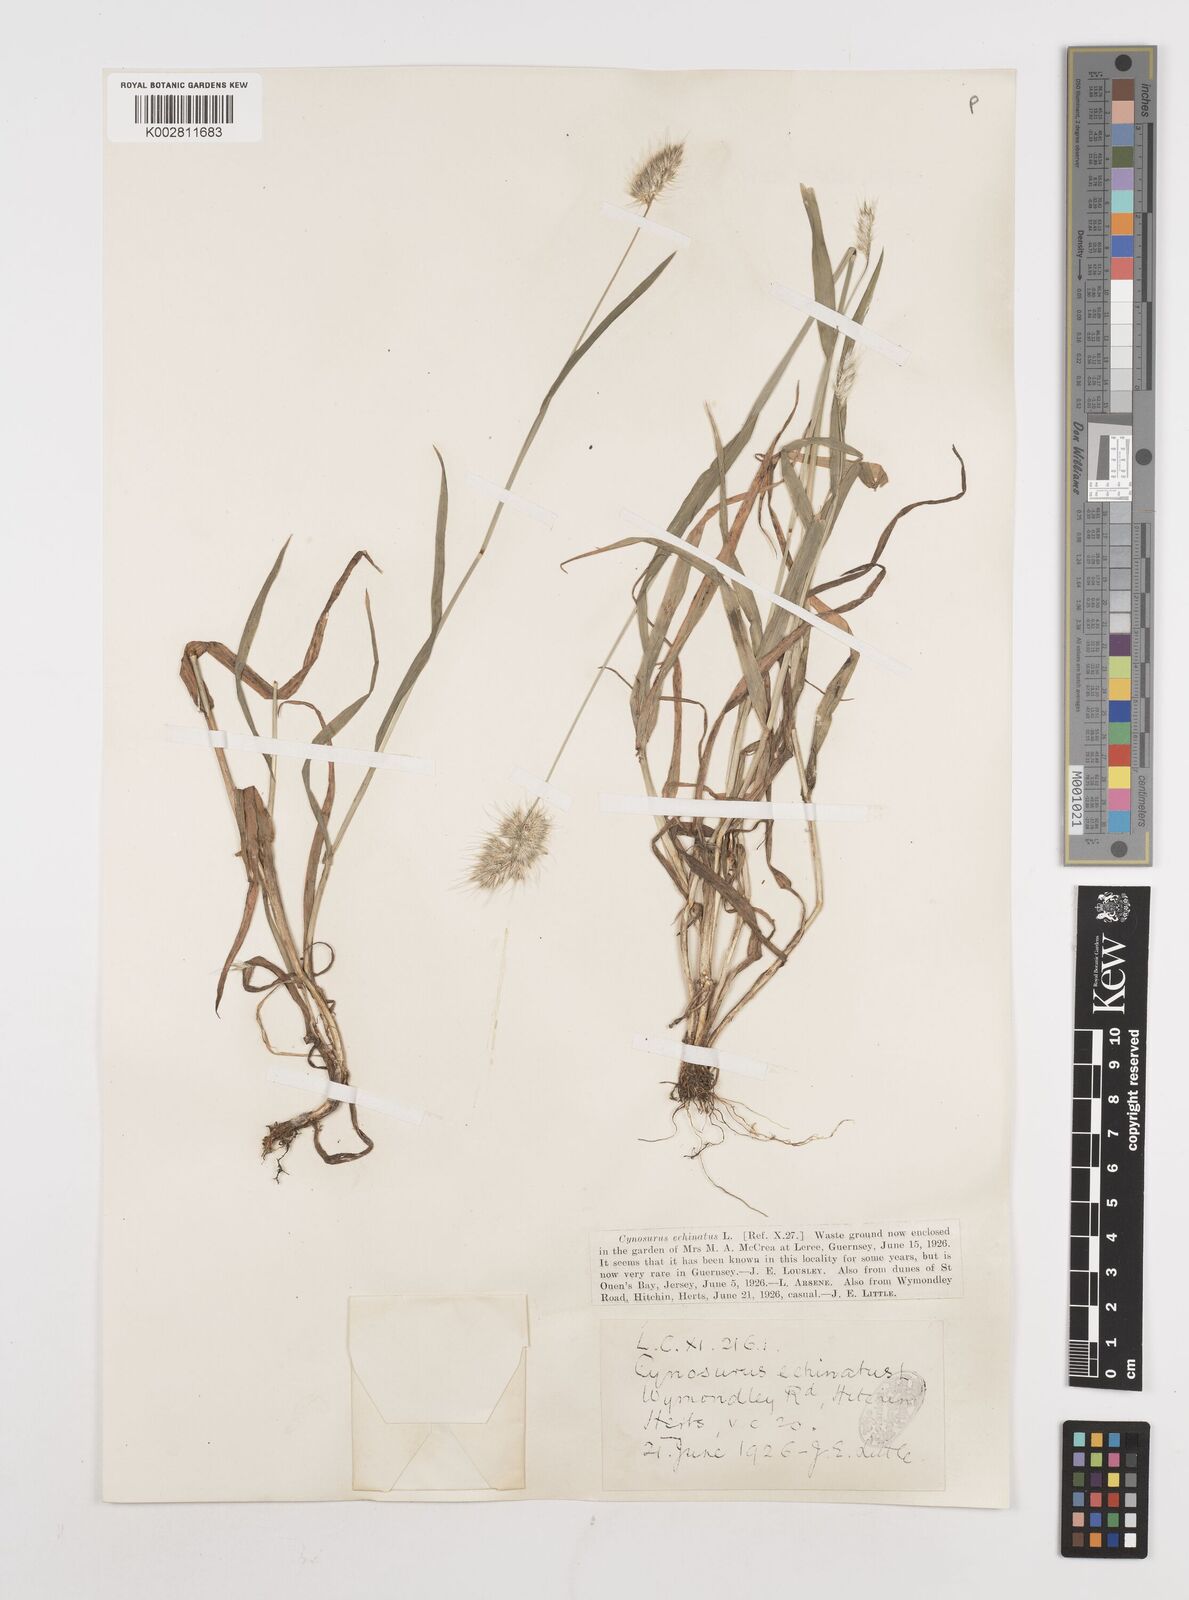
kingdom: Plantae
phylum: Tracheophyta
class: Liliopsida
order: Poales
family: Poaceae
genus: Cynosurus
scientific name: Cynosurus echinatus
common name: Rough dog's-tail
